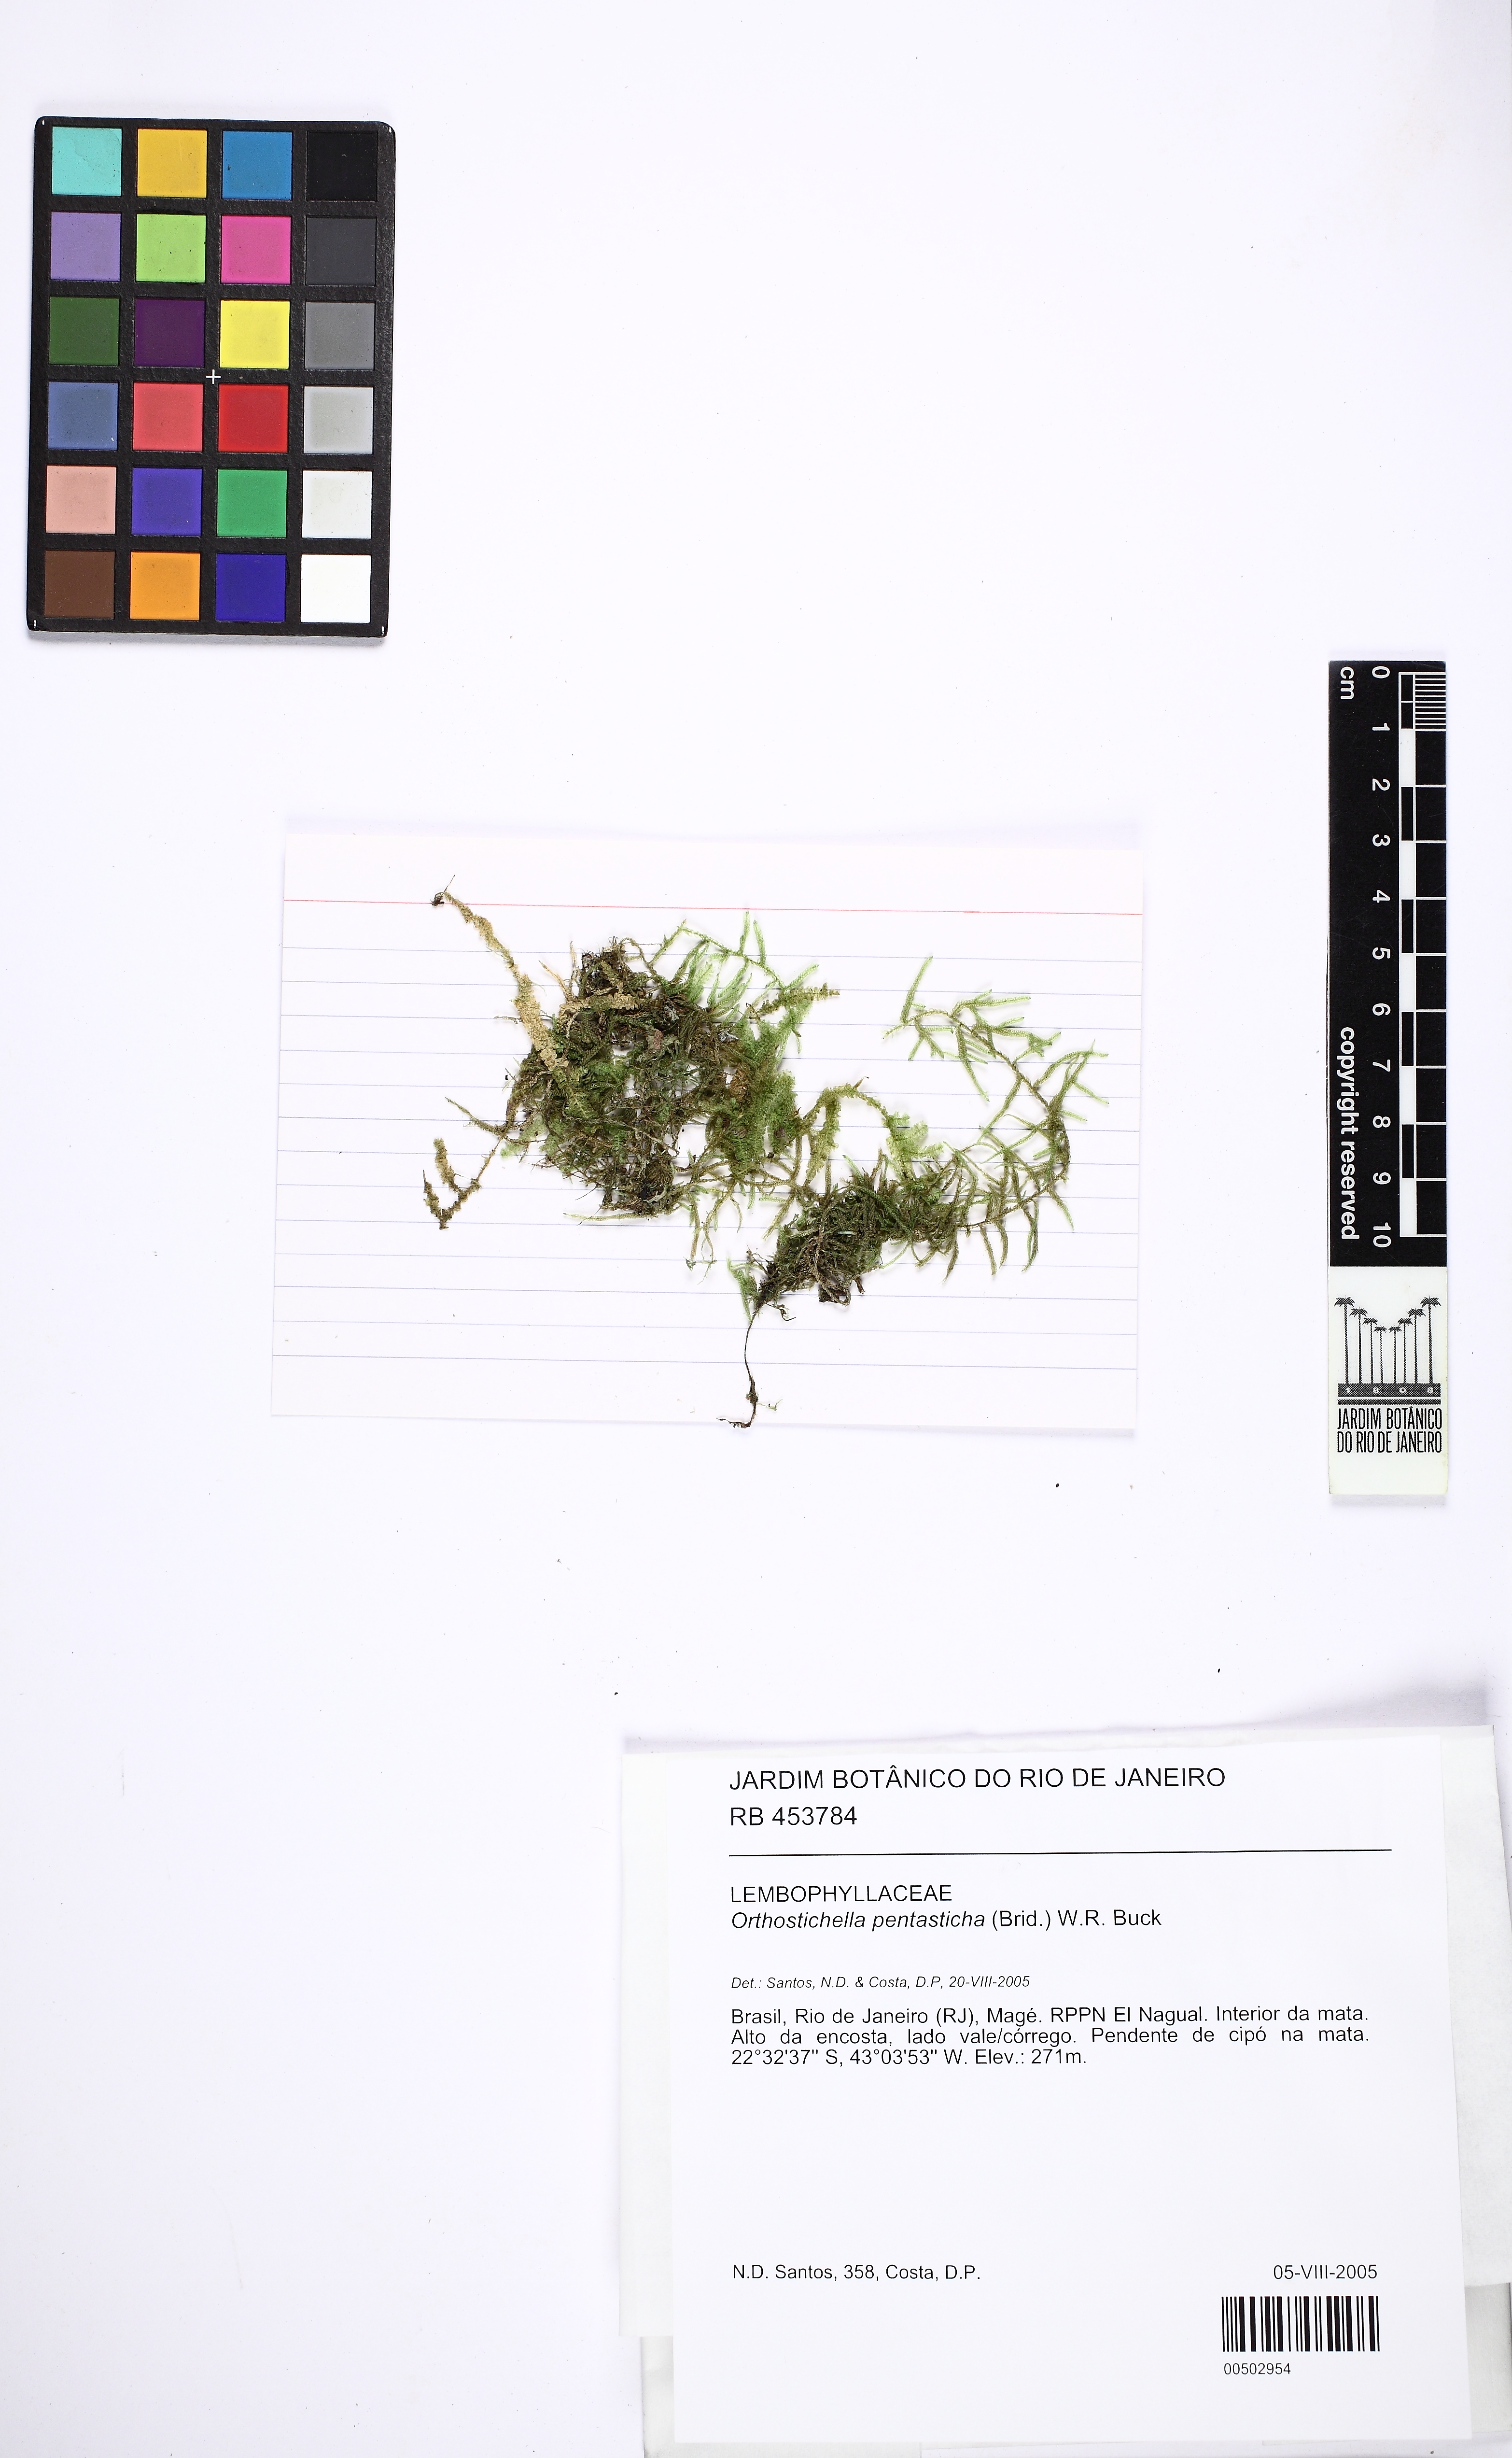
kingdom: Plantae
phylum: Bryophyta
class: Bryopsida
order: Hypnales
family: Pterobryaceae
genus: Orthostichidium
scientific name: Orthostichidium pentastichum
